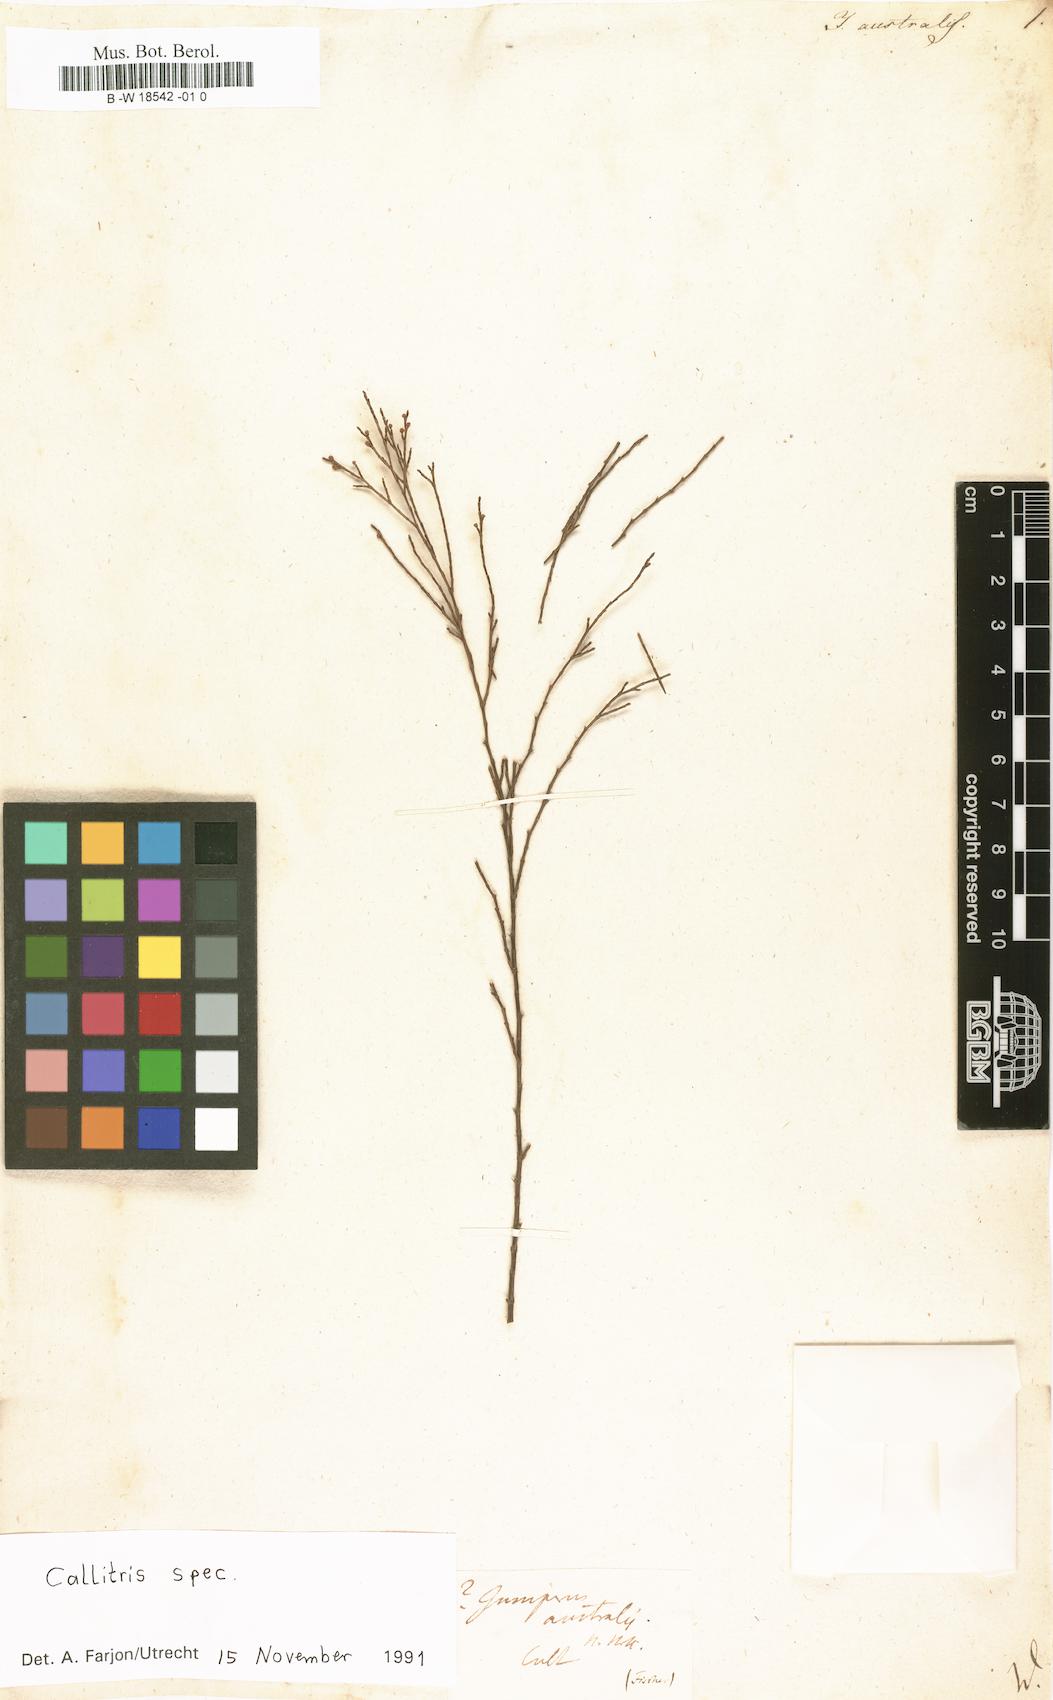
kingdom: Plantae
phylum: Tracheophyta
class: Pinopsida
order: Pinales
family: Cupressaceae
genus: Juniperus
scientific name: Juniperus barbadensis
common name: West indies juniper
